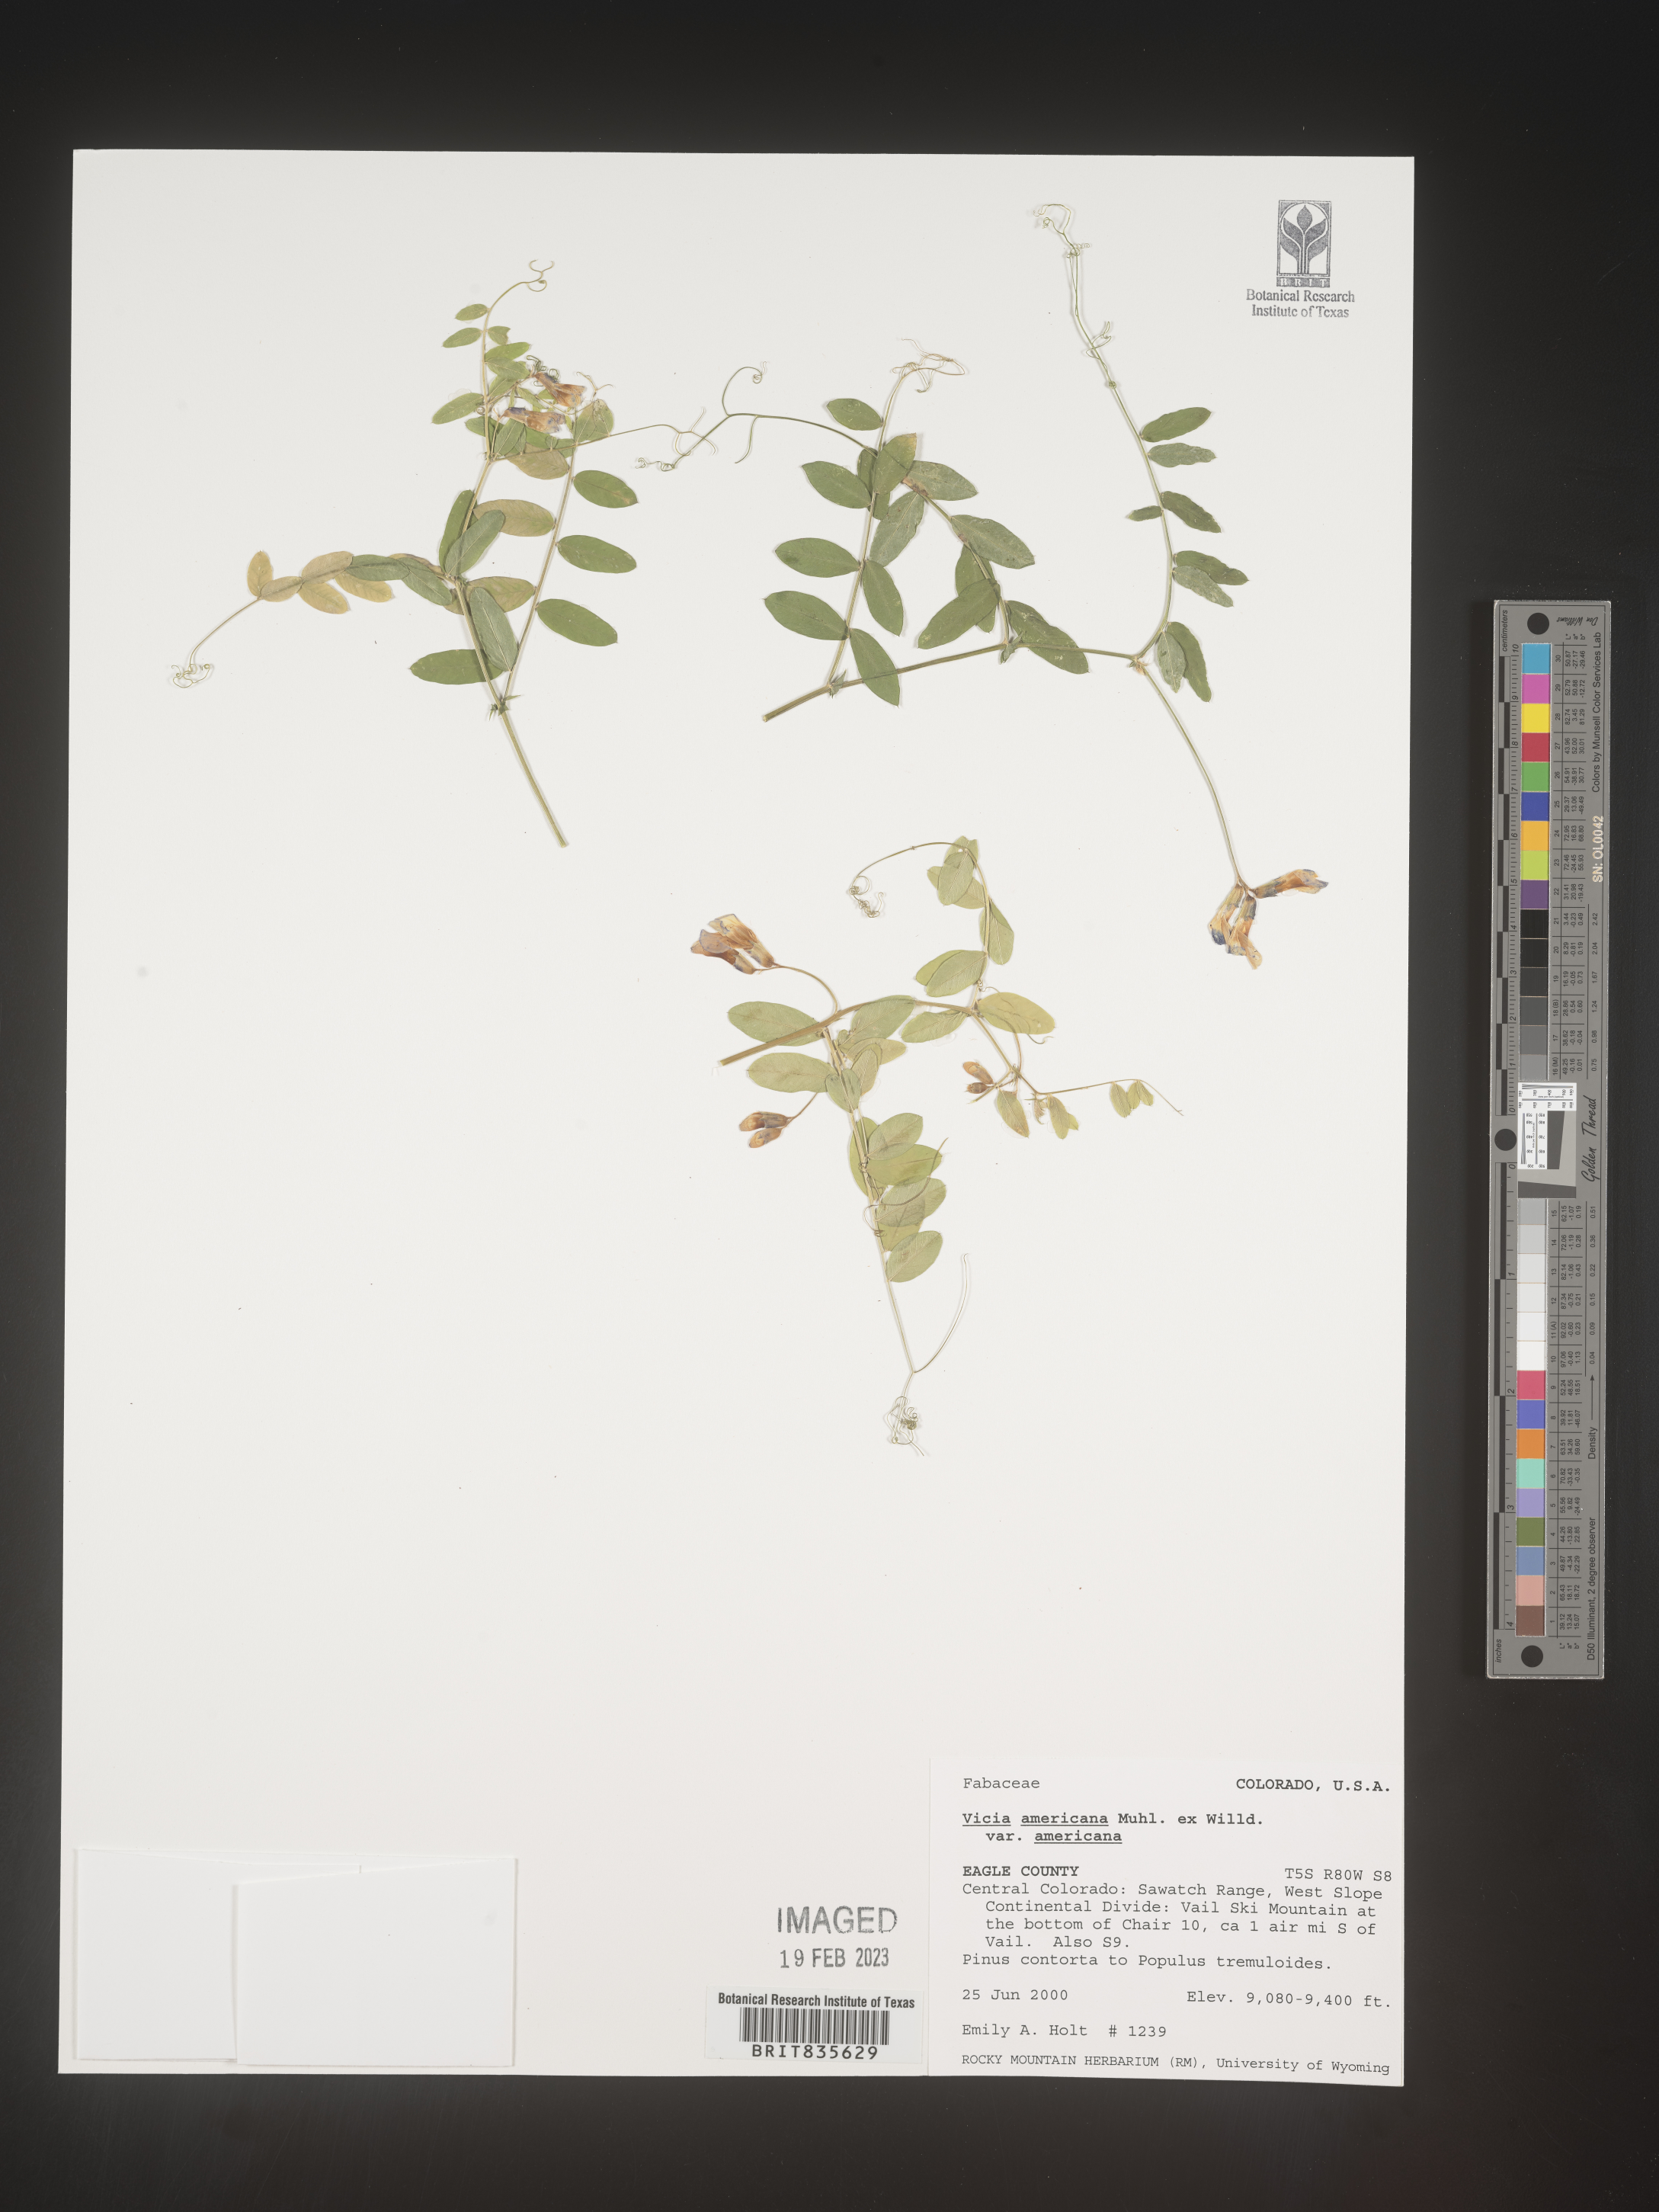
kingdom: Plantae
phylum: Tracheophyta
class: Magnoliopsida
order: Fabales
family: Fabaceae
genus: Vicia
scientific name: Vicia americana
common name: American vetch
